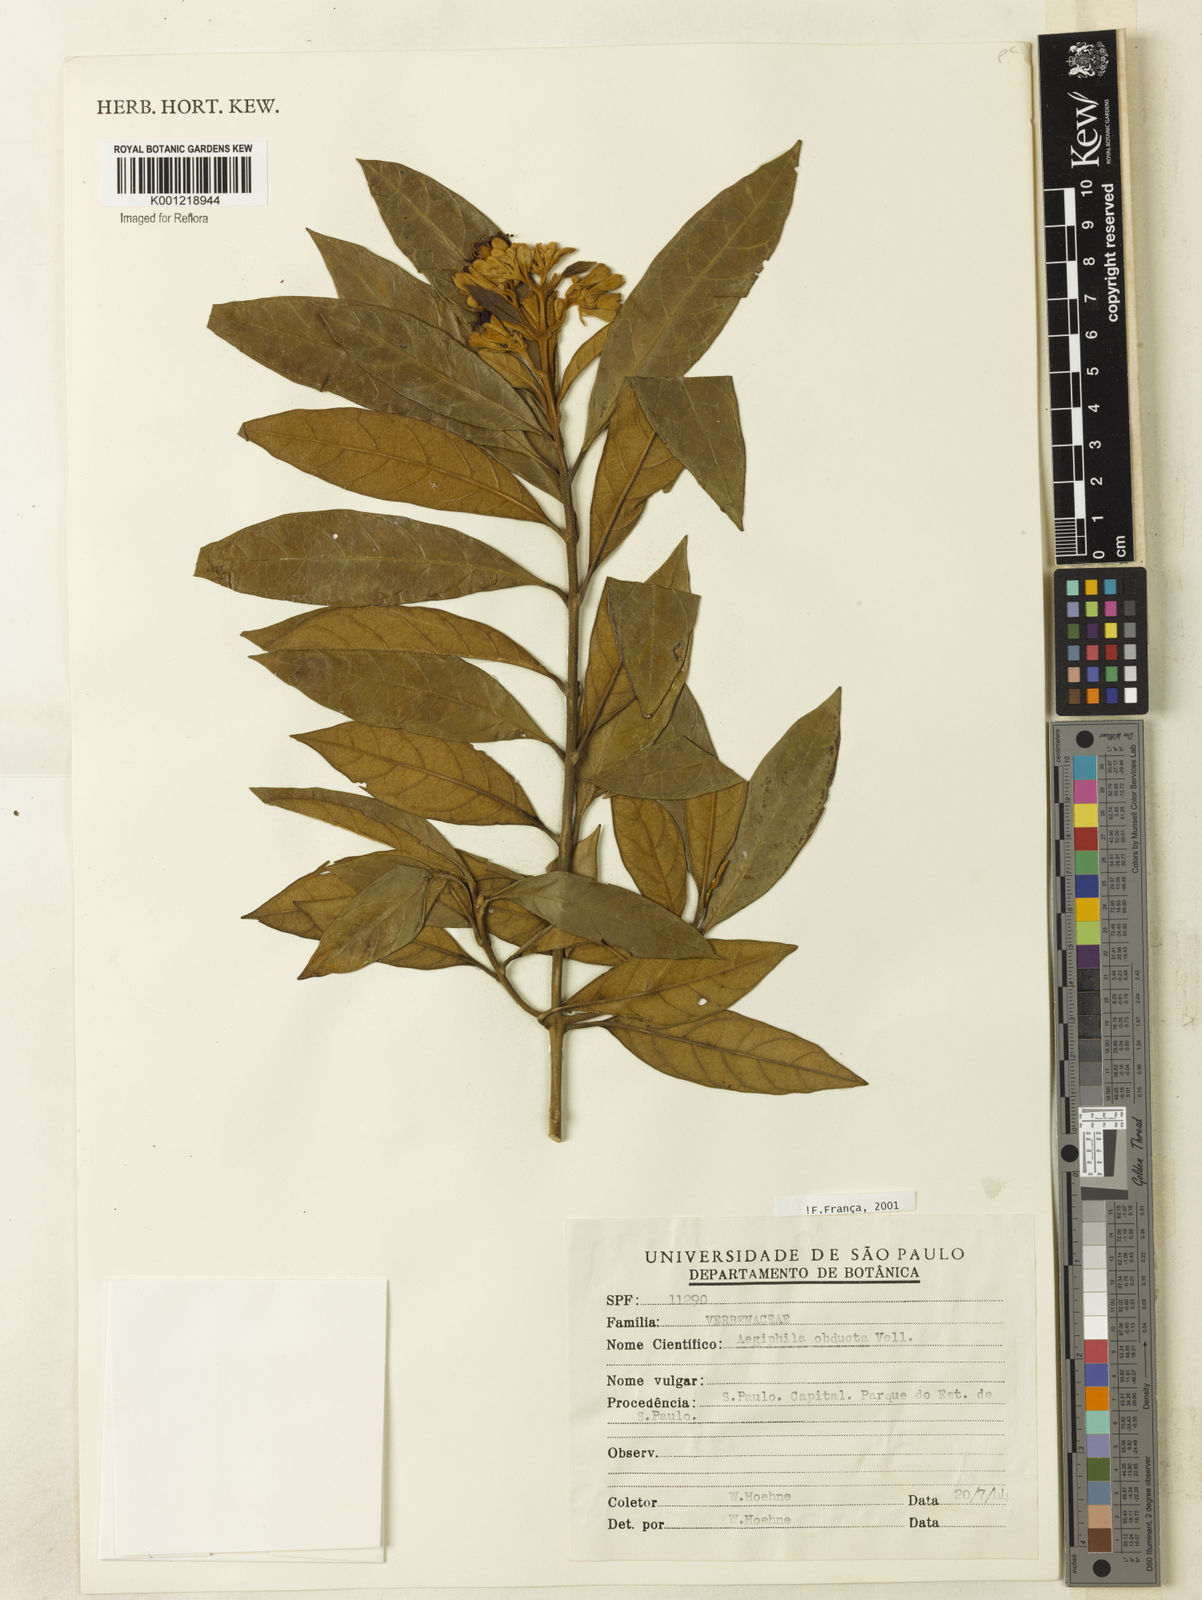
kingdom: Plantae
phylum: Tracheophyta
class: Magnoliopsida
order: Lamiales
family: Lamiaceae
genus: Aegiphila
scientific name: Aegiphila obducta
